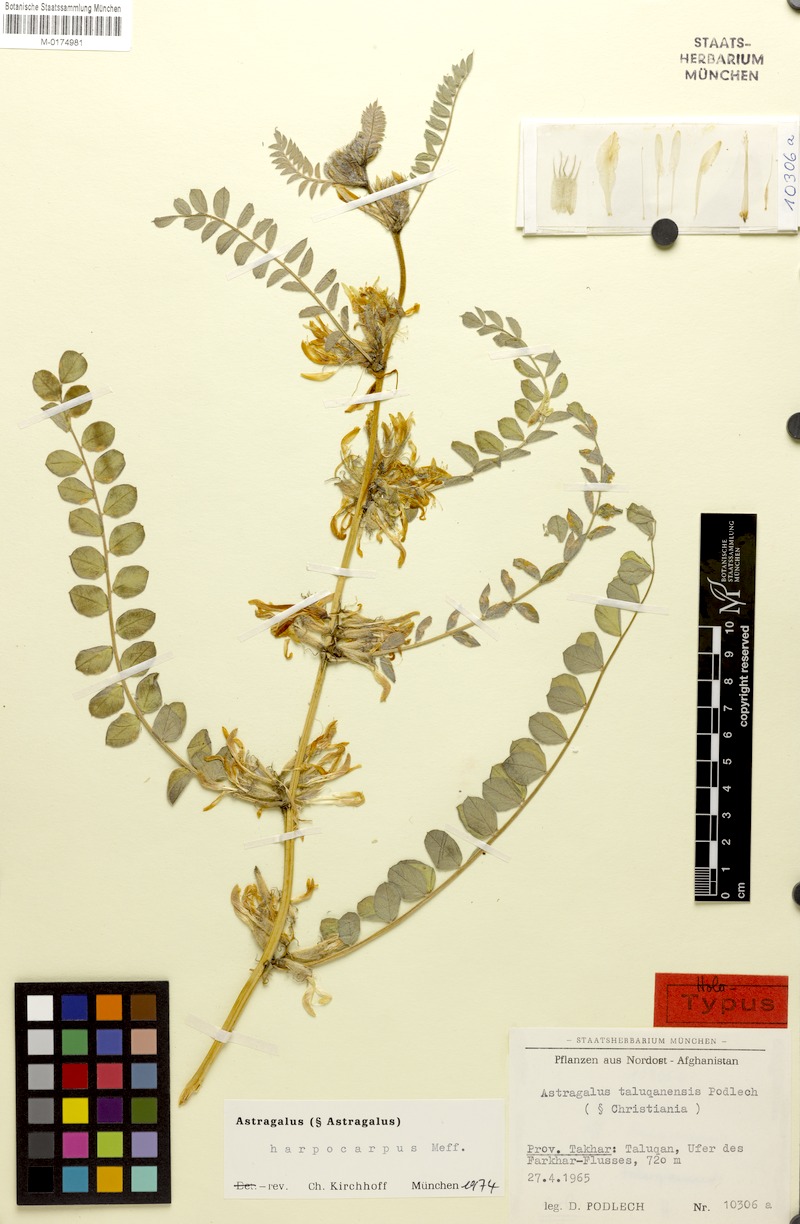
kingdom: Plantae
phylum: Tracheophyta
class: Magnoliopsida
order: Fabales
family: Fabaceae
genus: Astragalus
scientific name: Astragalus harpocarpus
